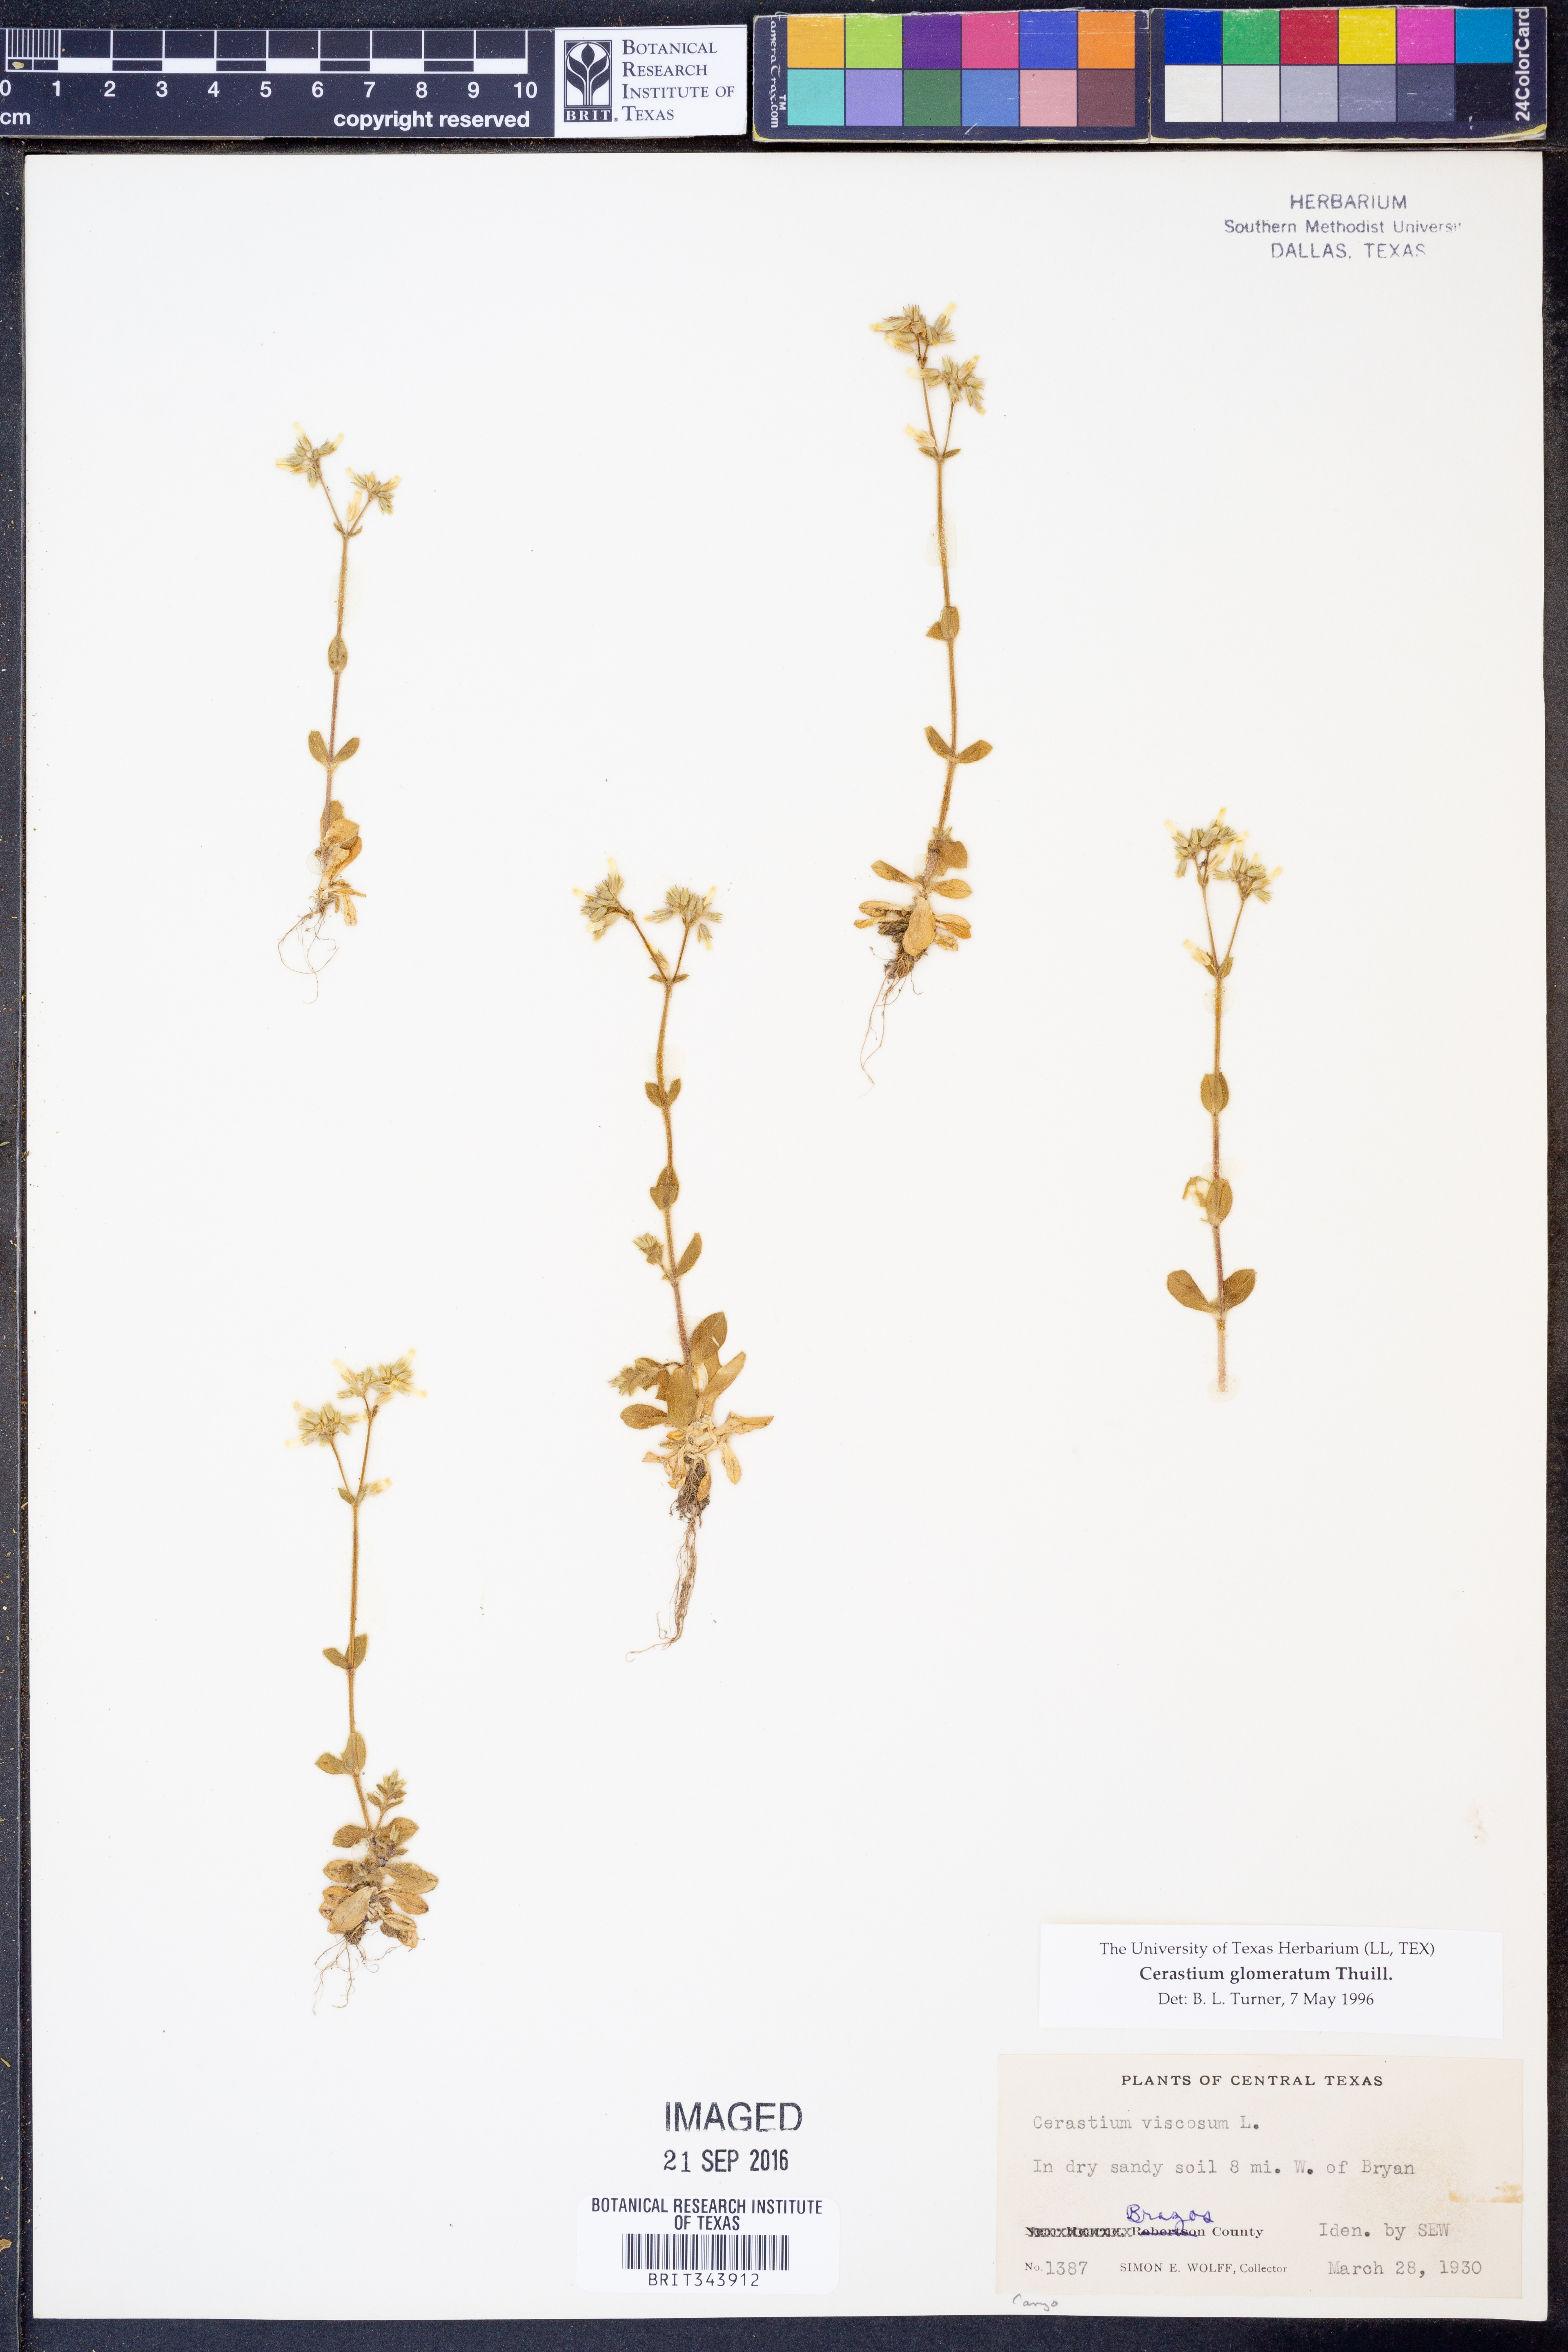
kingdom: Plantae
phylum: Tracheophyta
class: Magnoliopsida
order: Caryophyllales
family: Caryophyllaceae
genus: Cerastium
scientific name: Cerastium glomeratum
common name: Sticky chickweed
